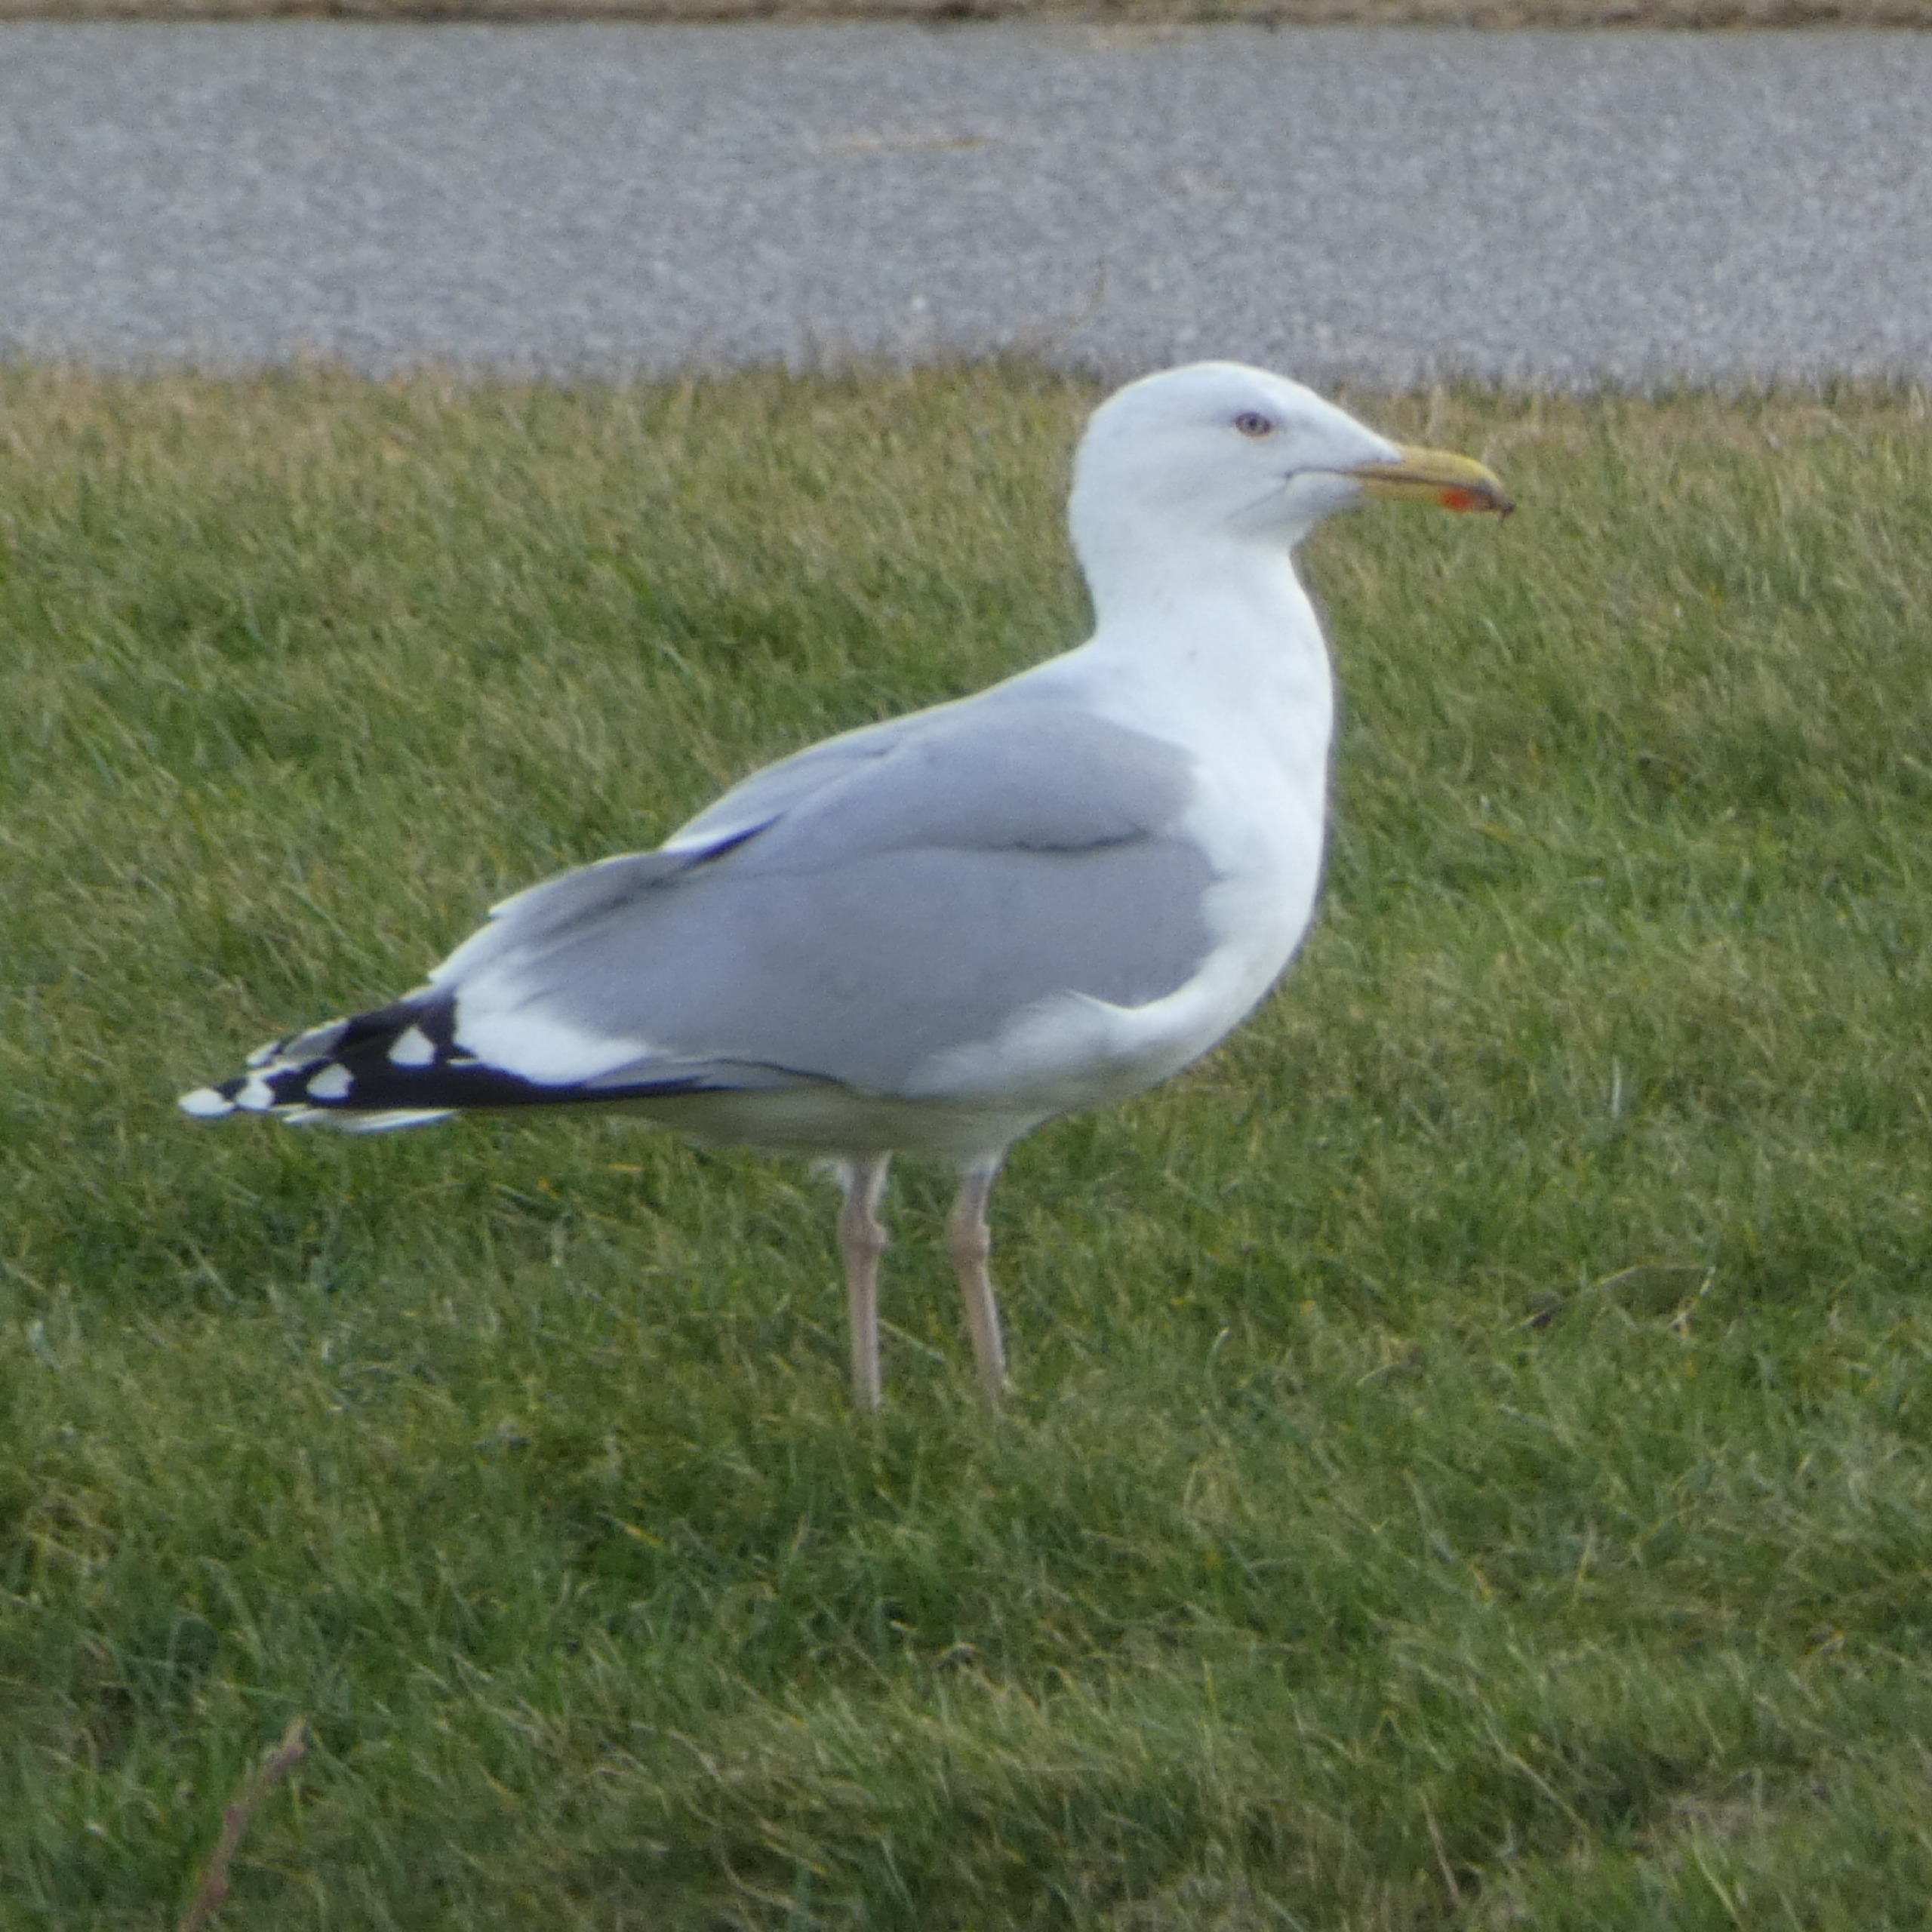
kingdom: Animalia
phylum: Chordata
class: Aves
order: Charadriiformes
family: Laridae
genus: Larus
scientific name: Larus argentatus
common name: Sølvmåge
